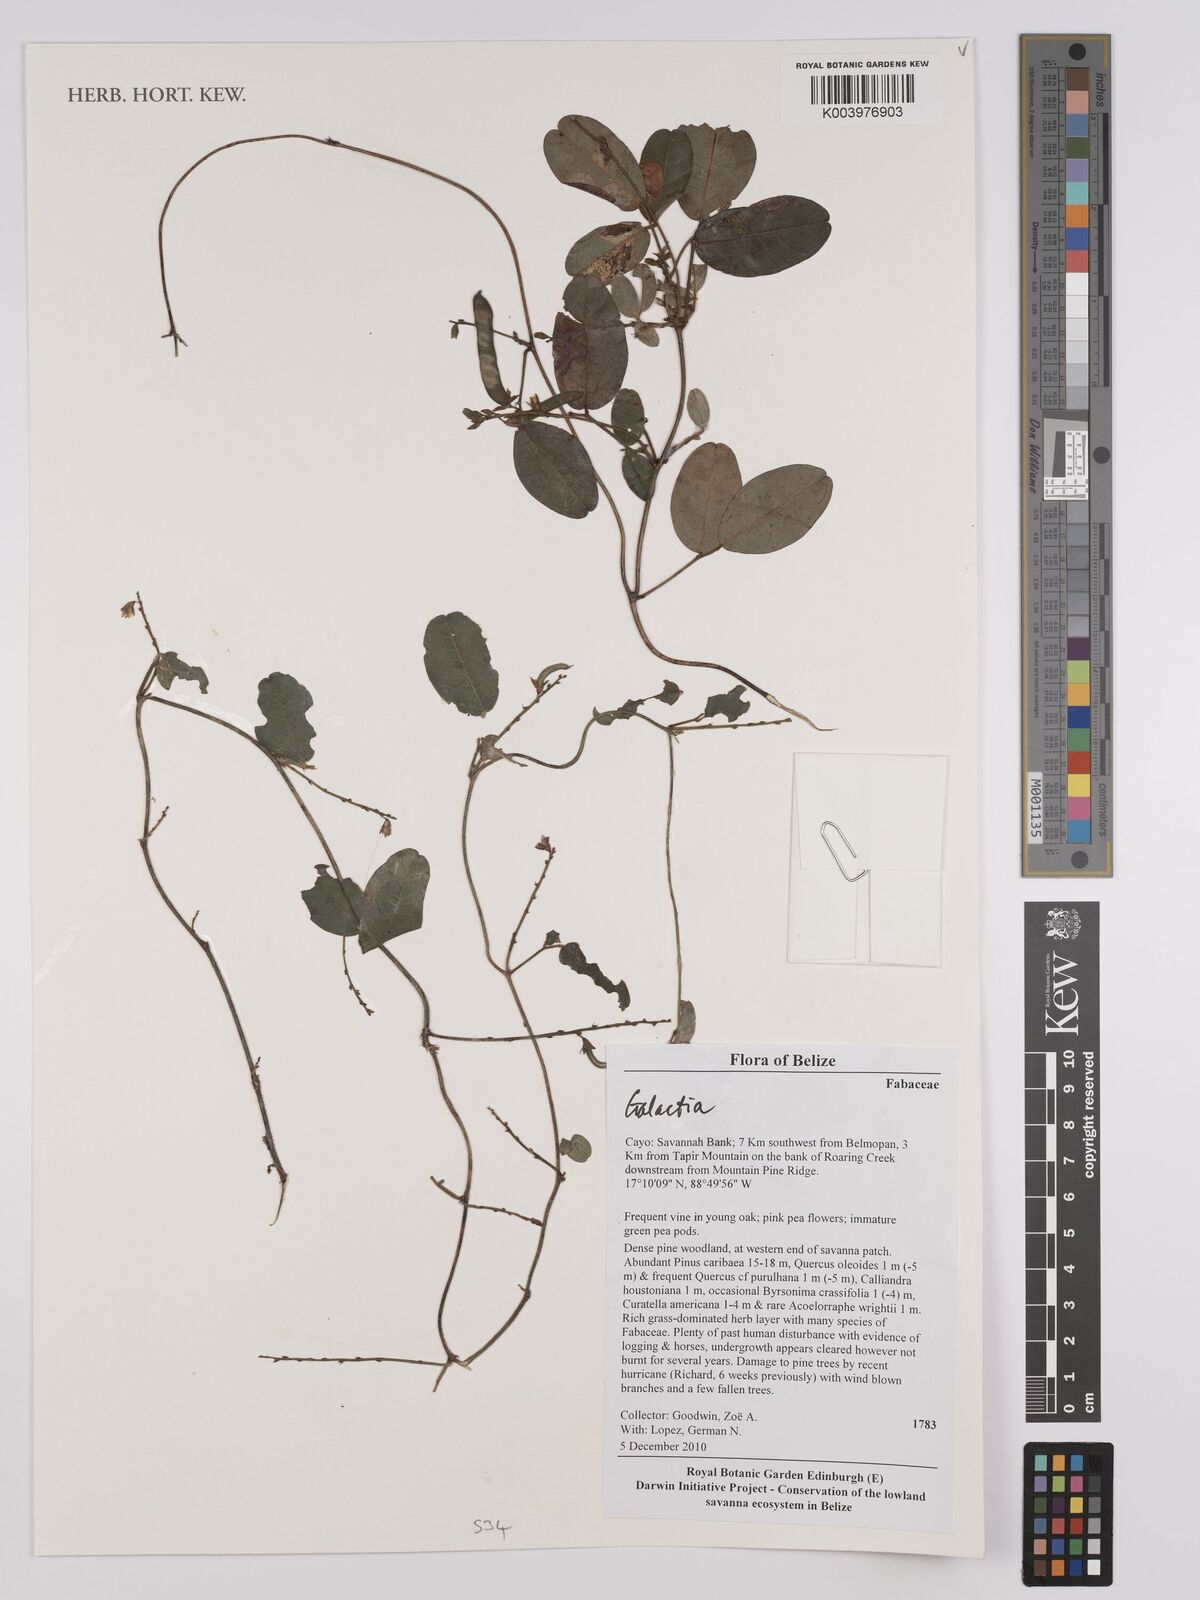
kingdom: Plantae
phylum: Tracheophyta
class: Magnoliopsida
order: Fabales
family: Fabaceae
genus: Galactia
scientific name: Galactia
